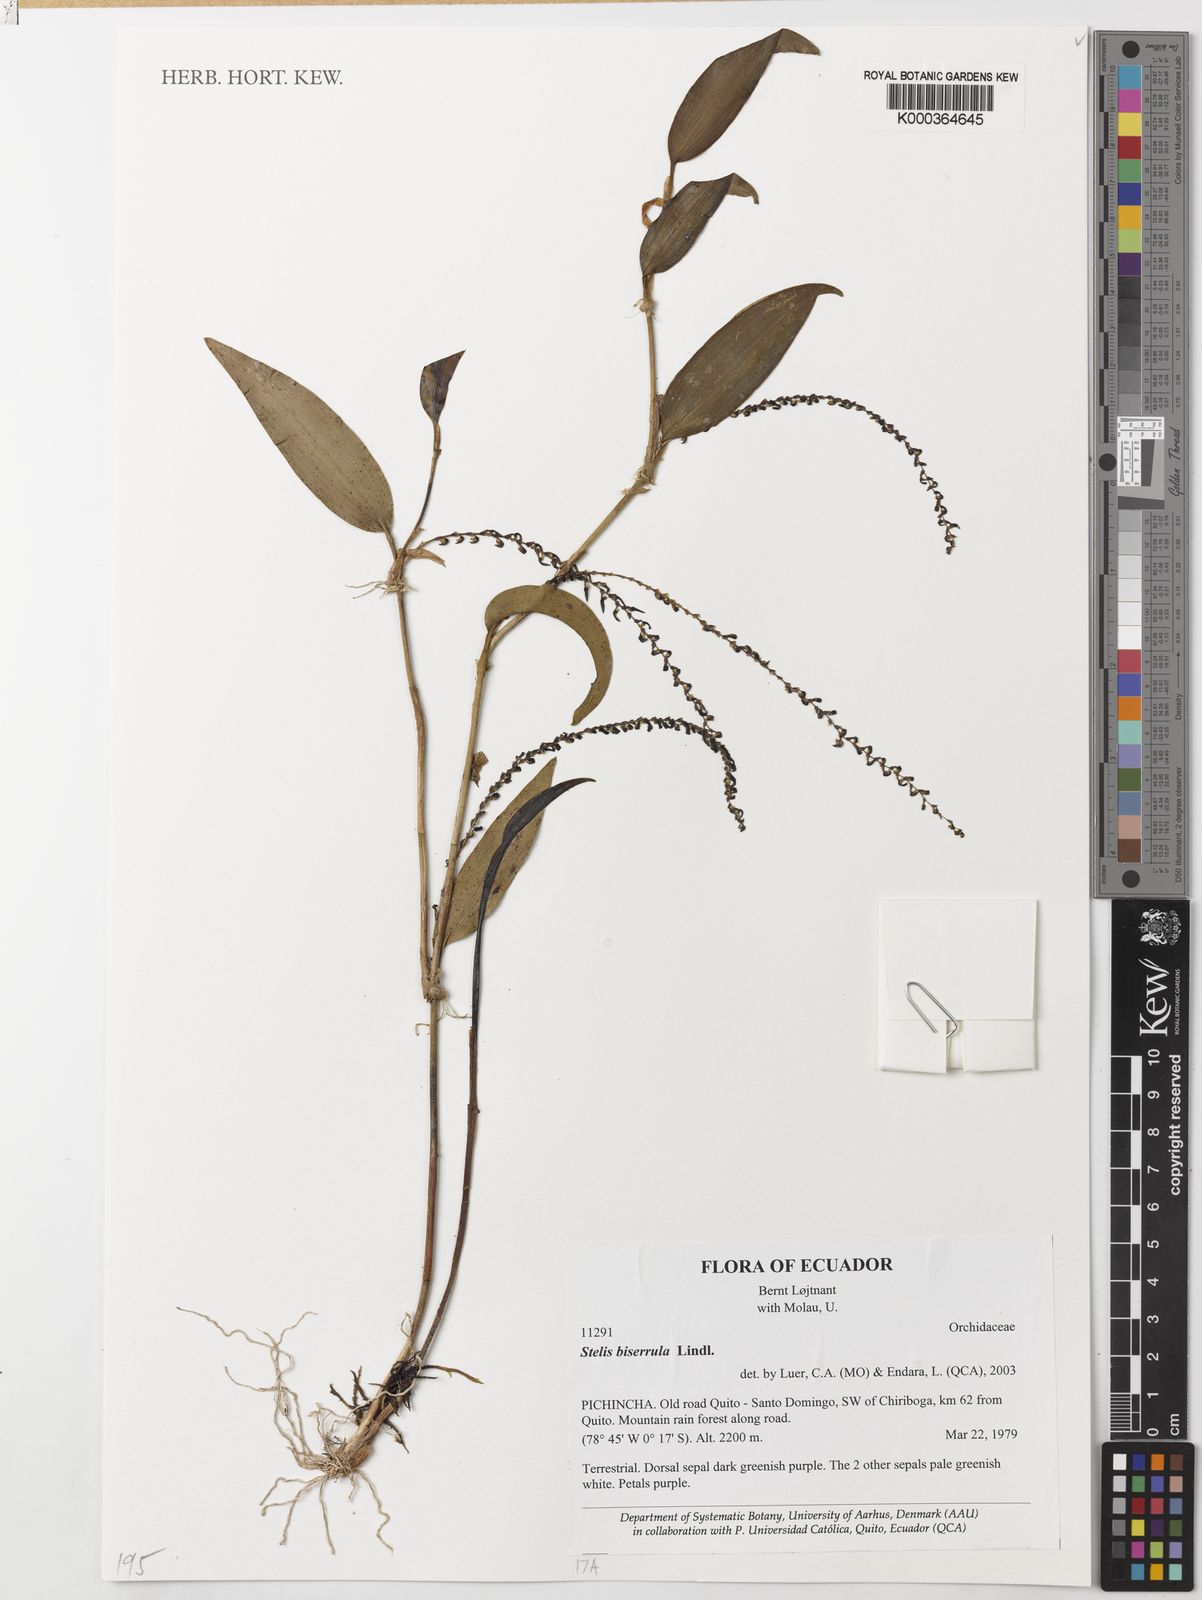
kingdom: Plantae
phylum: Tracheophyta
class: Liliopsida
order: Asparagales
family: Orchidaceae
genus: Stelis
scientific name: Stelis biserrula
